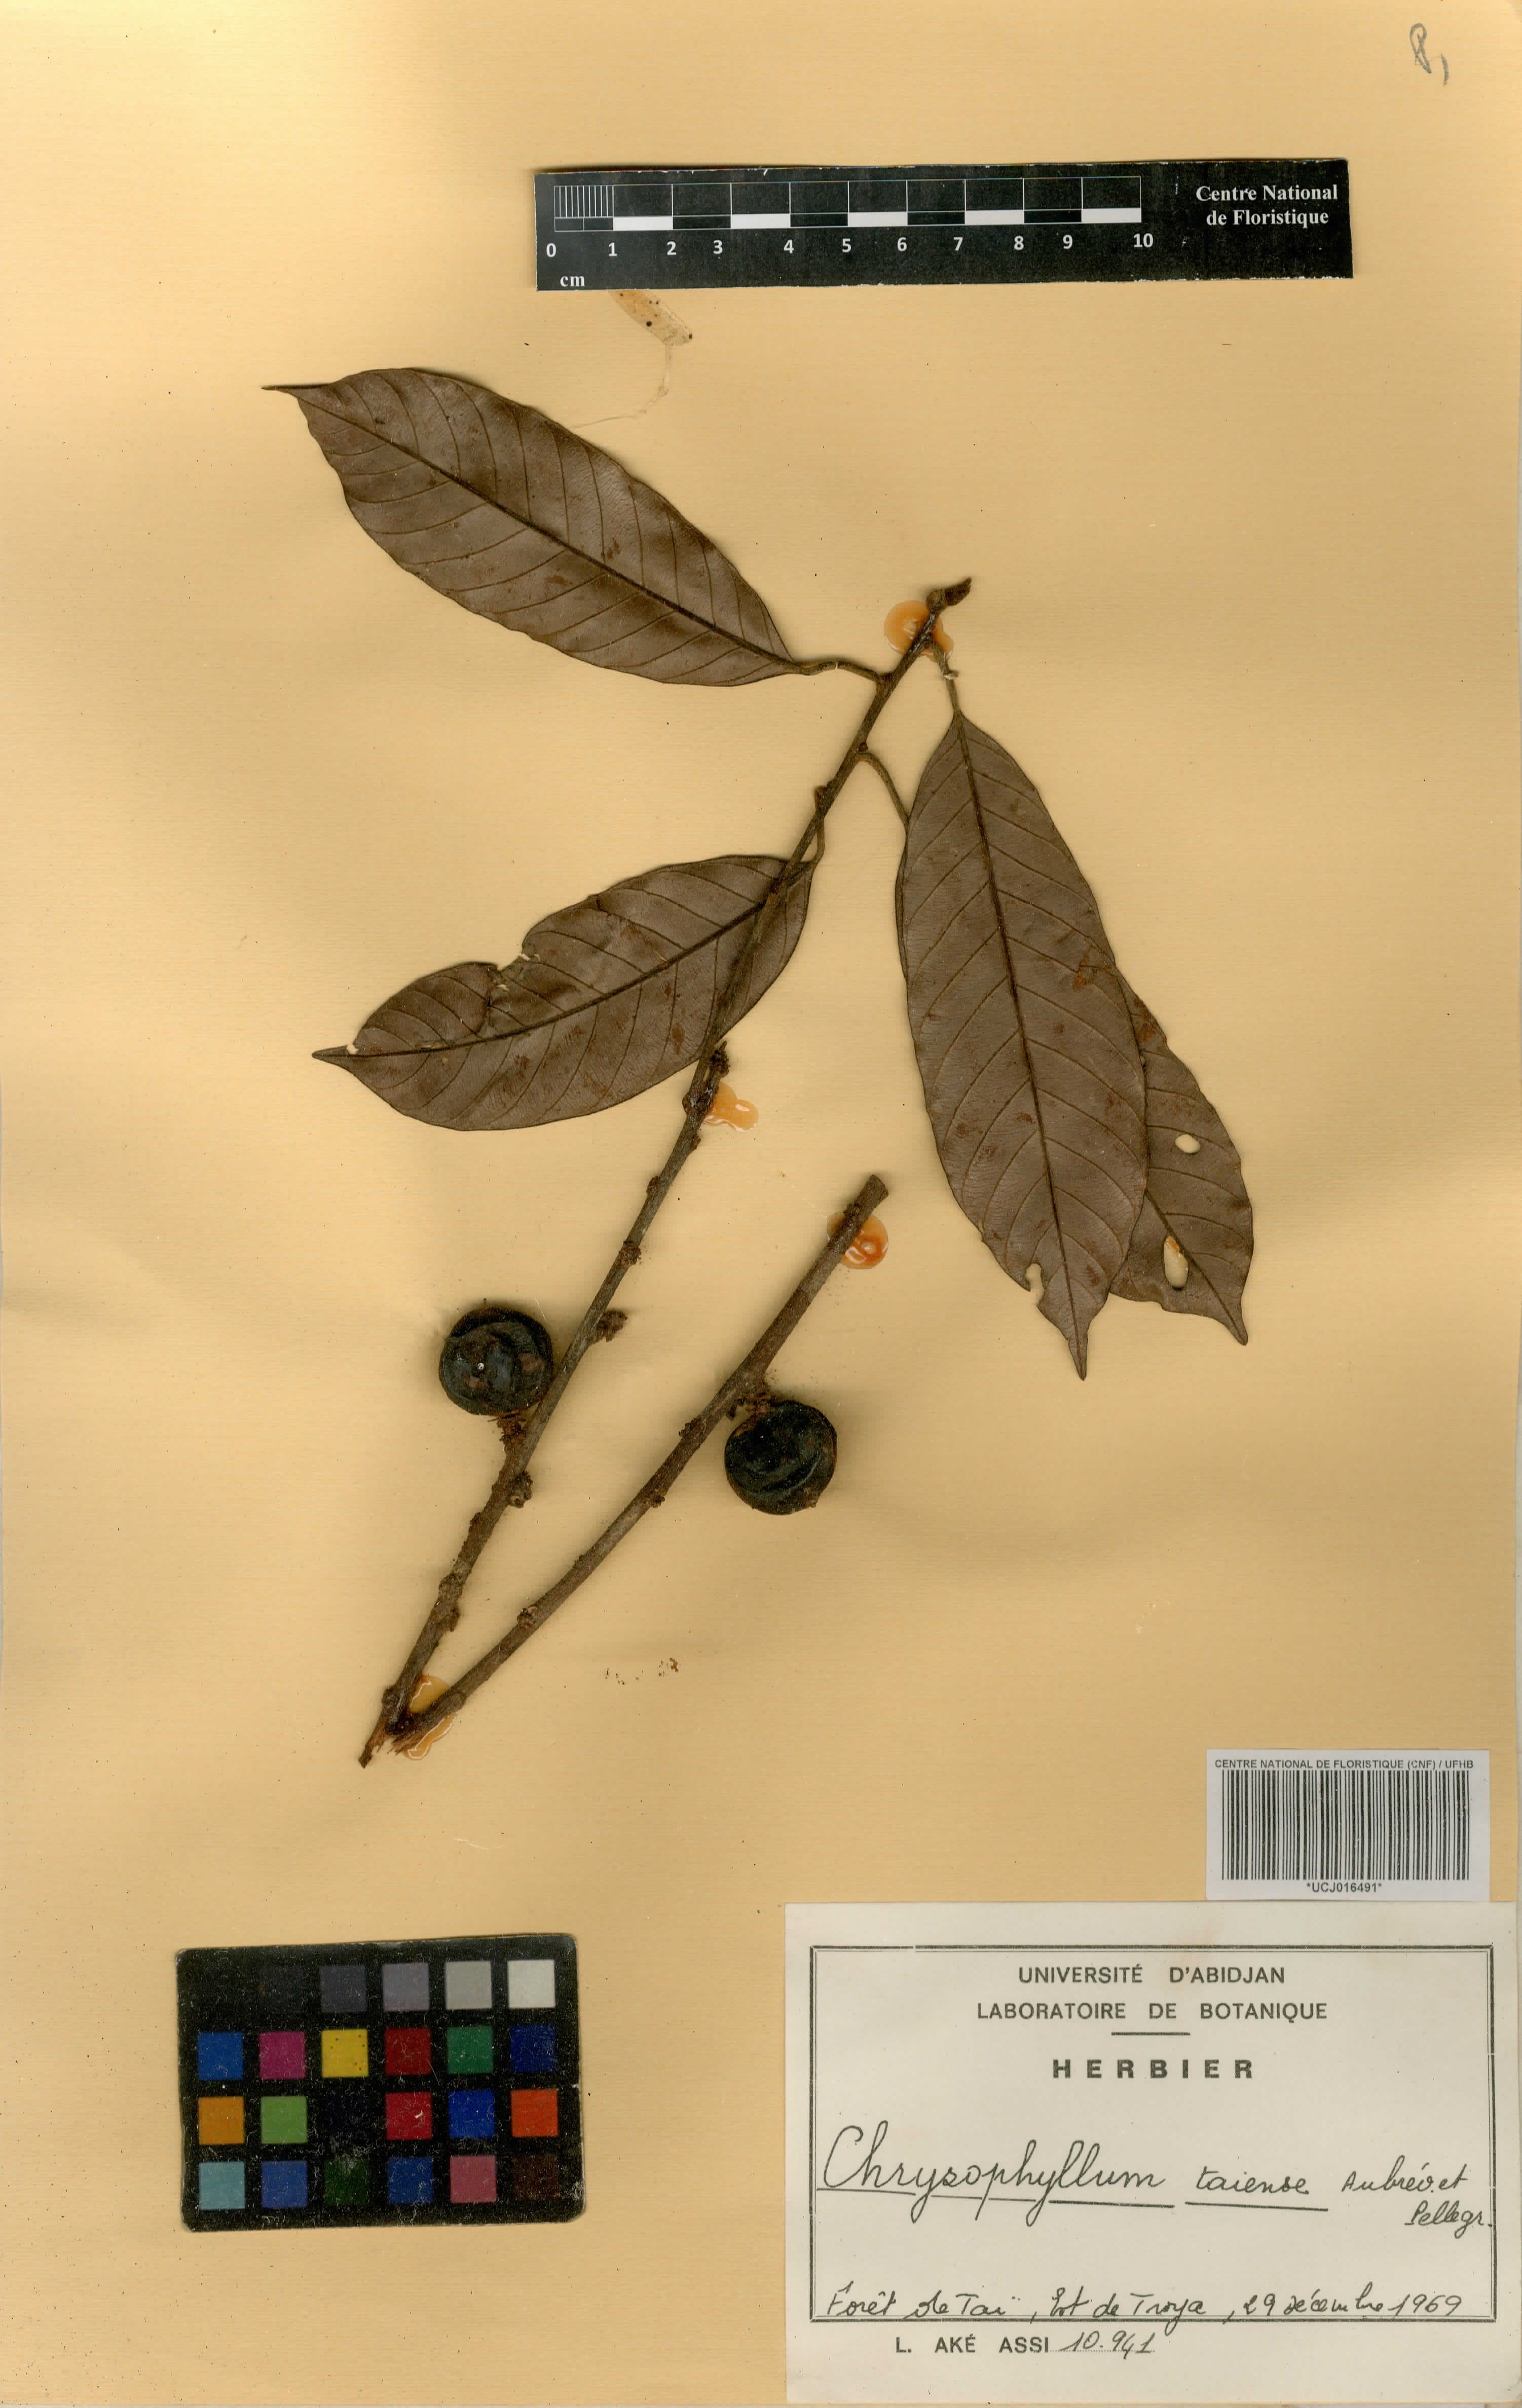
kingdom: Plantae
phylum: Tracheophyta
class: Magnoliopsida
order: Ericales
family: Sapotaceae
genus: Gambeya
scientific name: Gambeya taiensis
